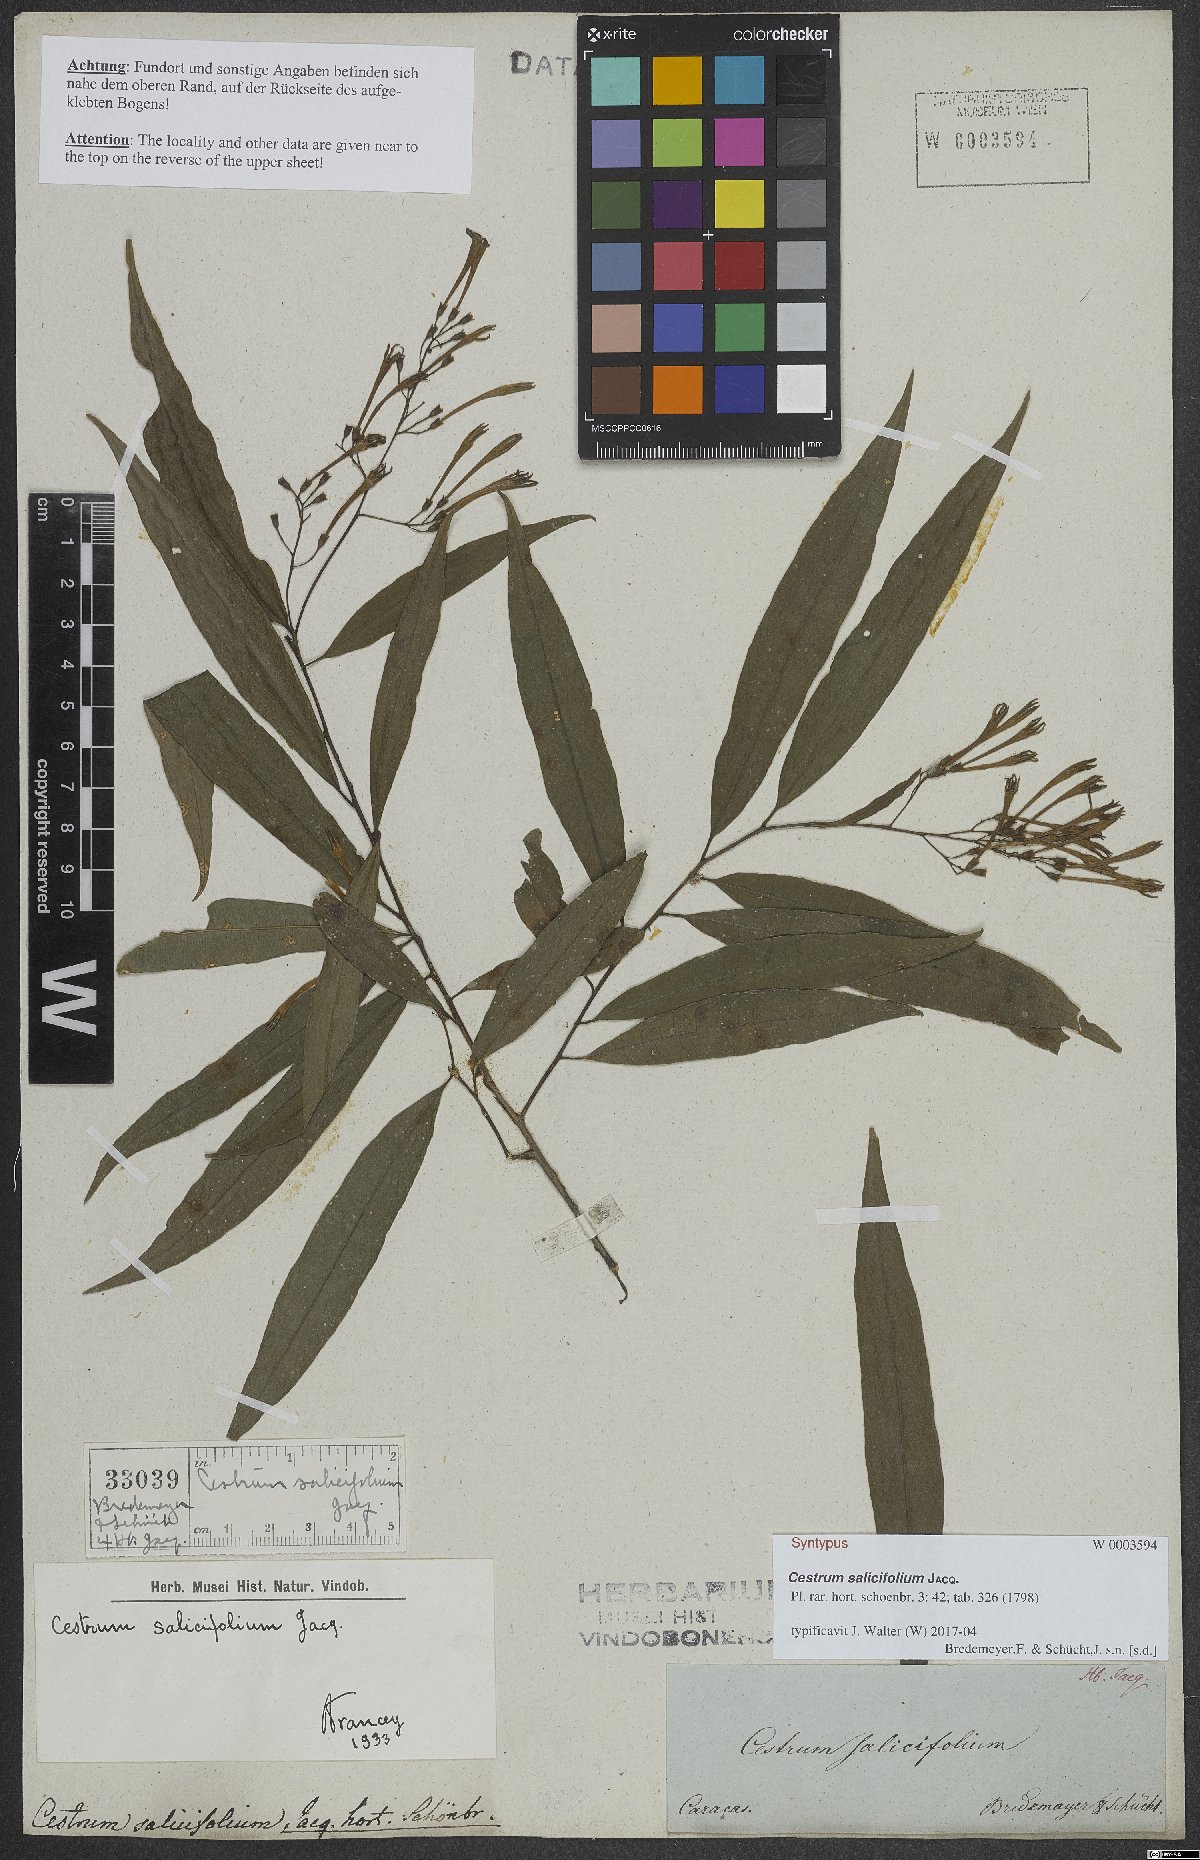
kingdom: Plantae
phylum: Tracheophyta
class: Magnoliopsida
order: Solanales
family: Solanaceae
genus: Cestrum
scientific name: Cestrum salicifolium
